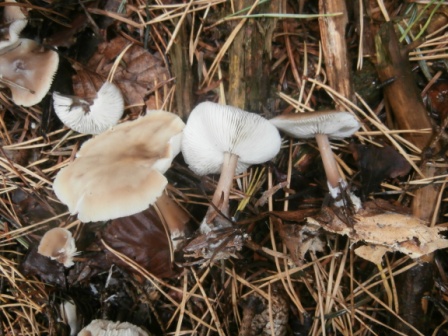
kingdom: Fungi
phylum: Basidiomycota
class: Agaricomycetes
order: Agaricales
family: Omphalotaceae
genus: Rhodocollybia
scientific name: Rhodocollybia asema
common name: horngrå fladhat
